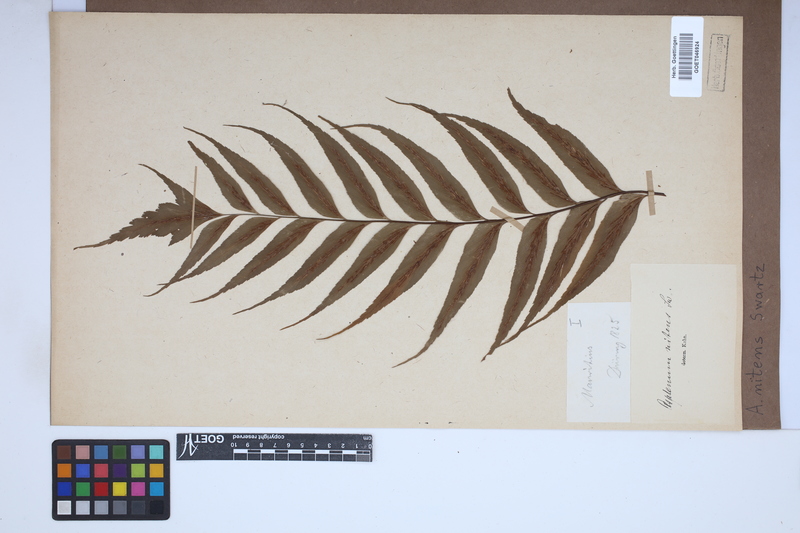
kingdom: Plantae
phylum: Tracheophyta
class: Polypodiopsida
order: Polypodiales
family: Aspleniaceae
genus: Asplenium
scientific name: Asplenium nitens
